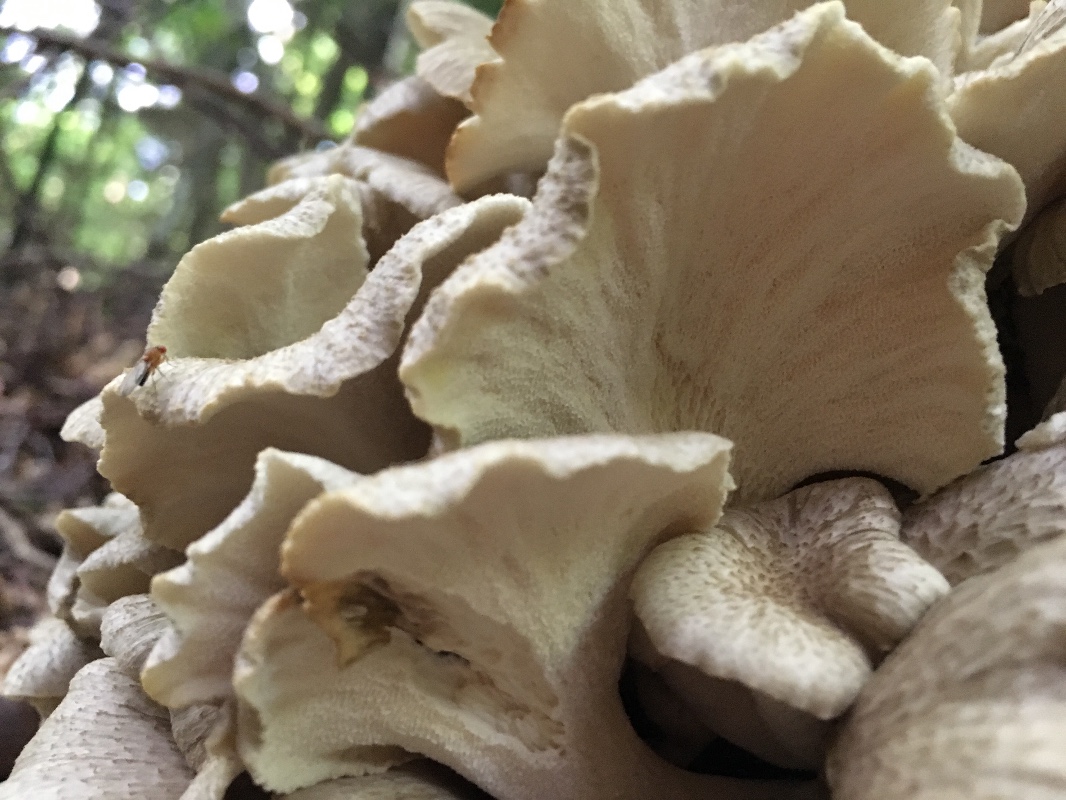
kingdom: Fungi
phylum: Basidiomycota
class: Agaricomycetes
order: Polyporales
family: Polyporaceae
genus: Polyporus
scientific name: Polyporus umbellatus
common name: skærmformet stilkporesvamp
